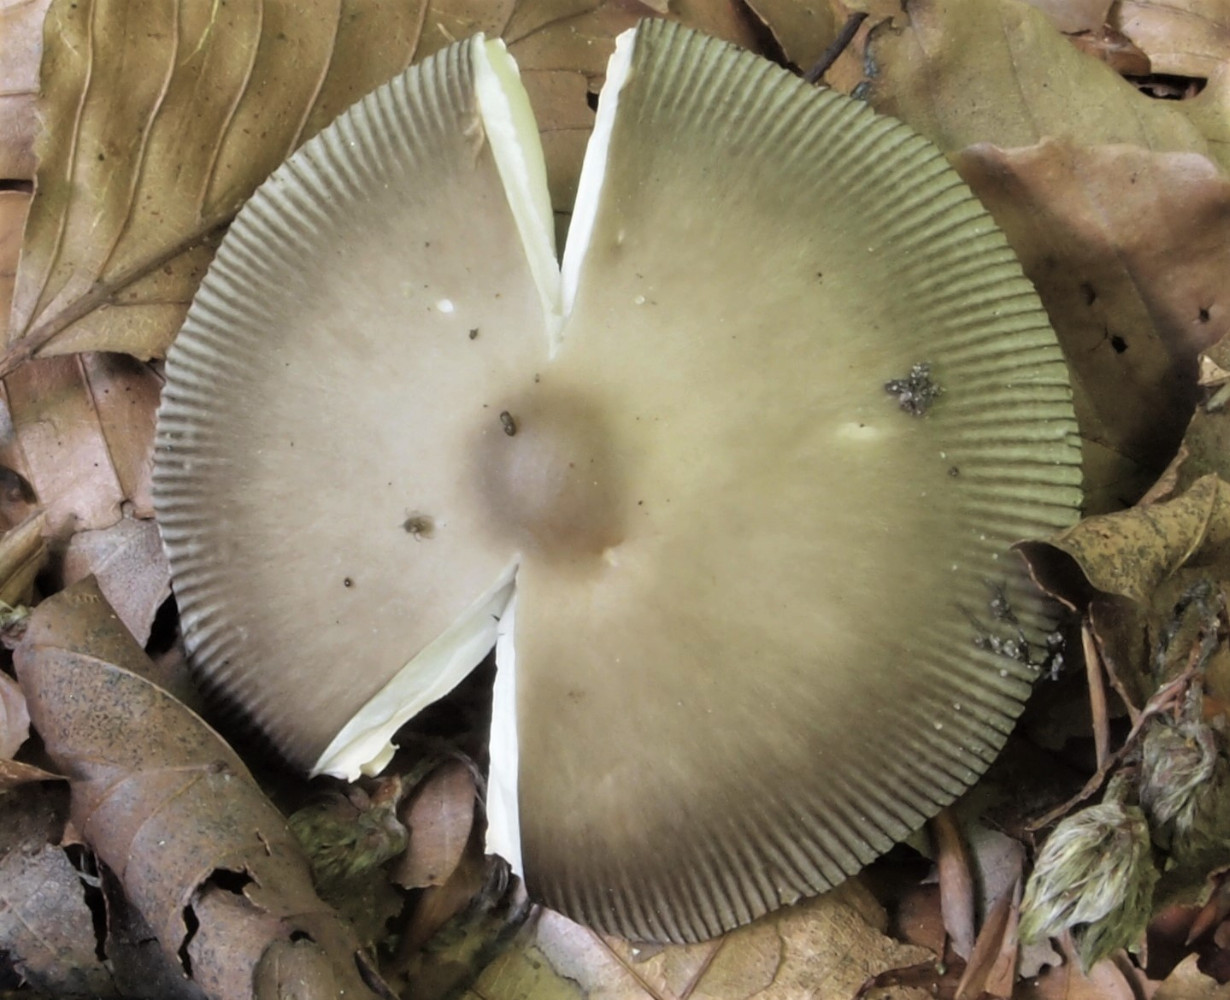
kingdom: Fungi
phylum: Basidiomycota
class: Agaricomycetes
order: Agaricales
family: Amanitaceae
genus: Amanita
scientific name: Amanita
